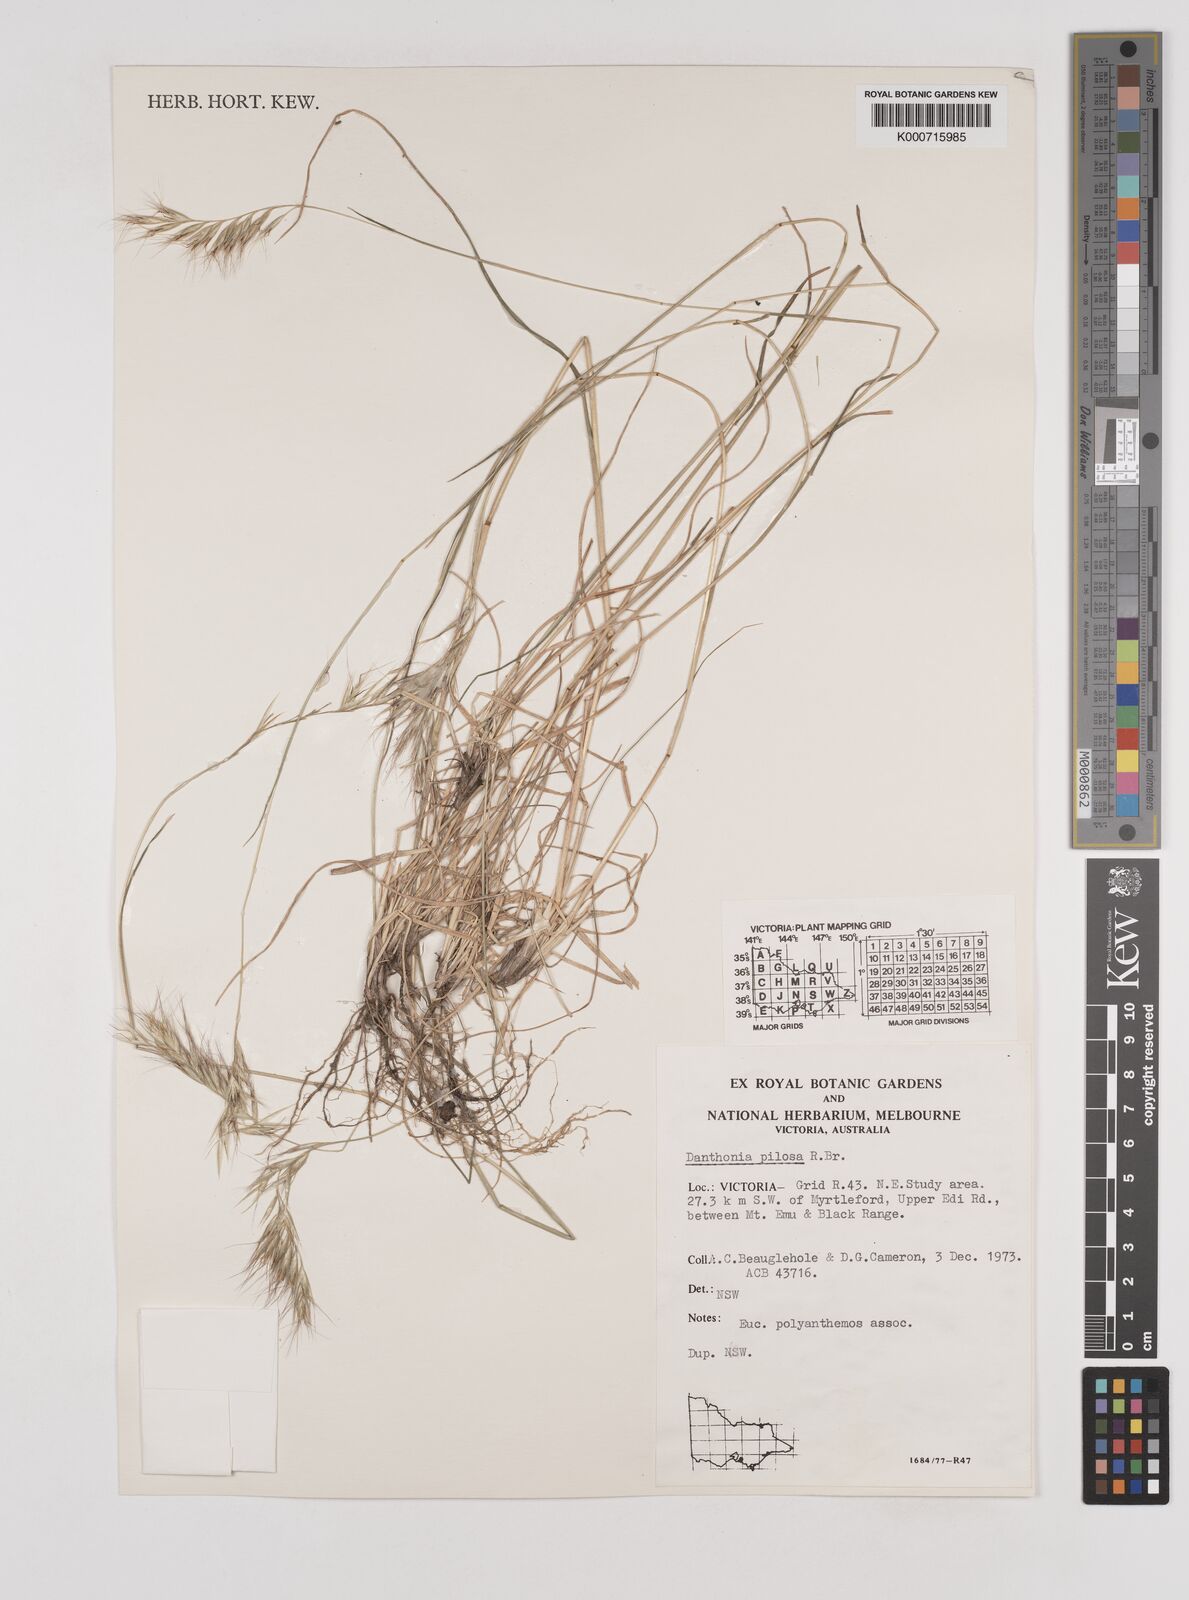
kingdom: Plantae
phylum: Tracheophyta
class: Liliopsida
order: Poales
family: Poaceae
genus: Rytidosperma
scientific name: Rytidosperma pilosum
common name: Hairy wallaby grass
